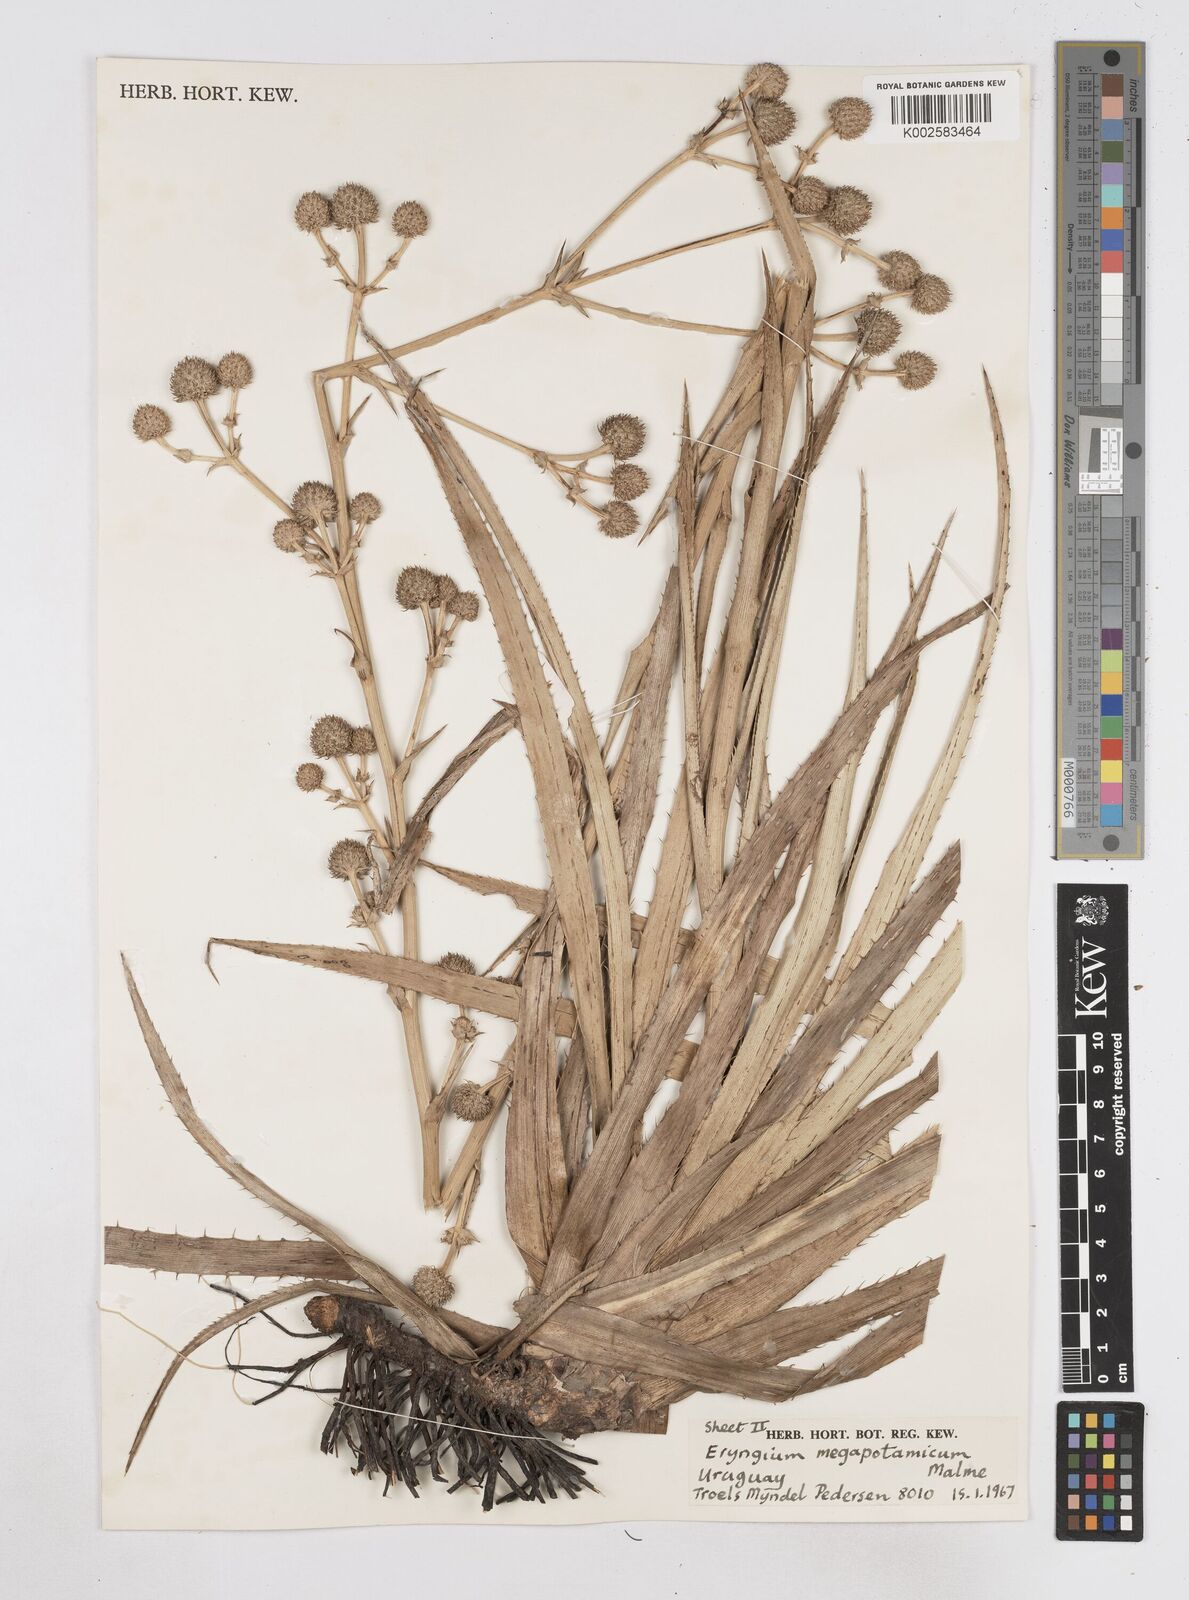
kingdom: Plantae
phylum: Tracheophyta
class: Magnoliopsida
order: Apiales
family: Apiaceae
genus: Eryngium
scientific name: Eryngium megapotamicum
